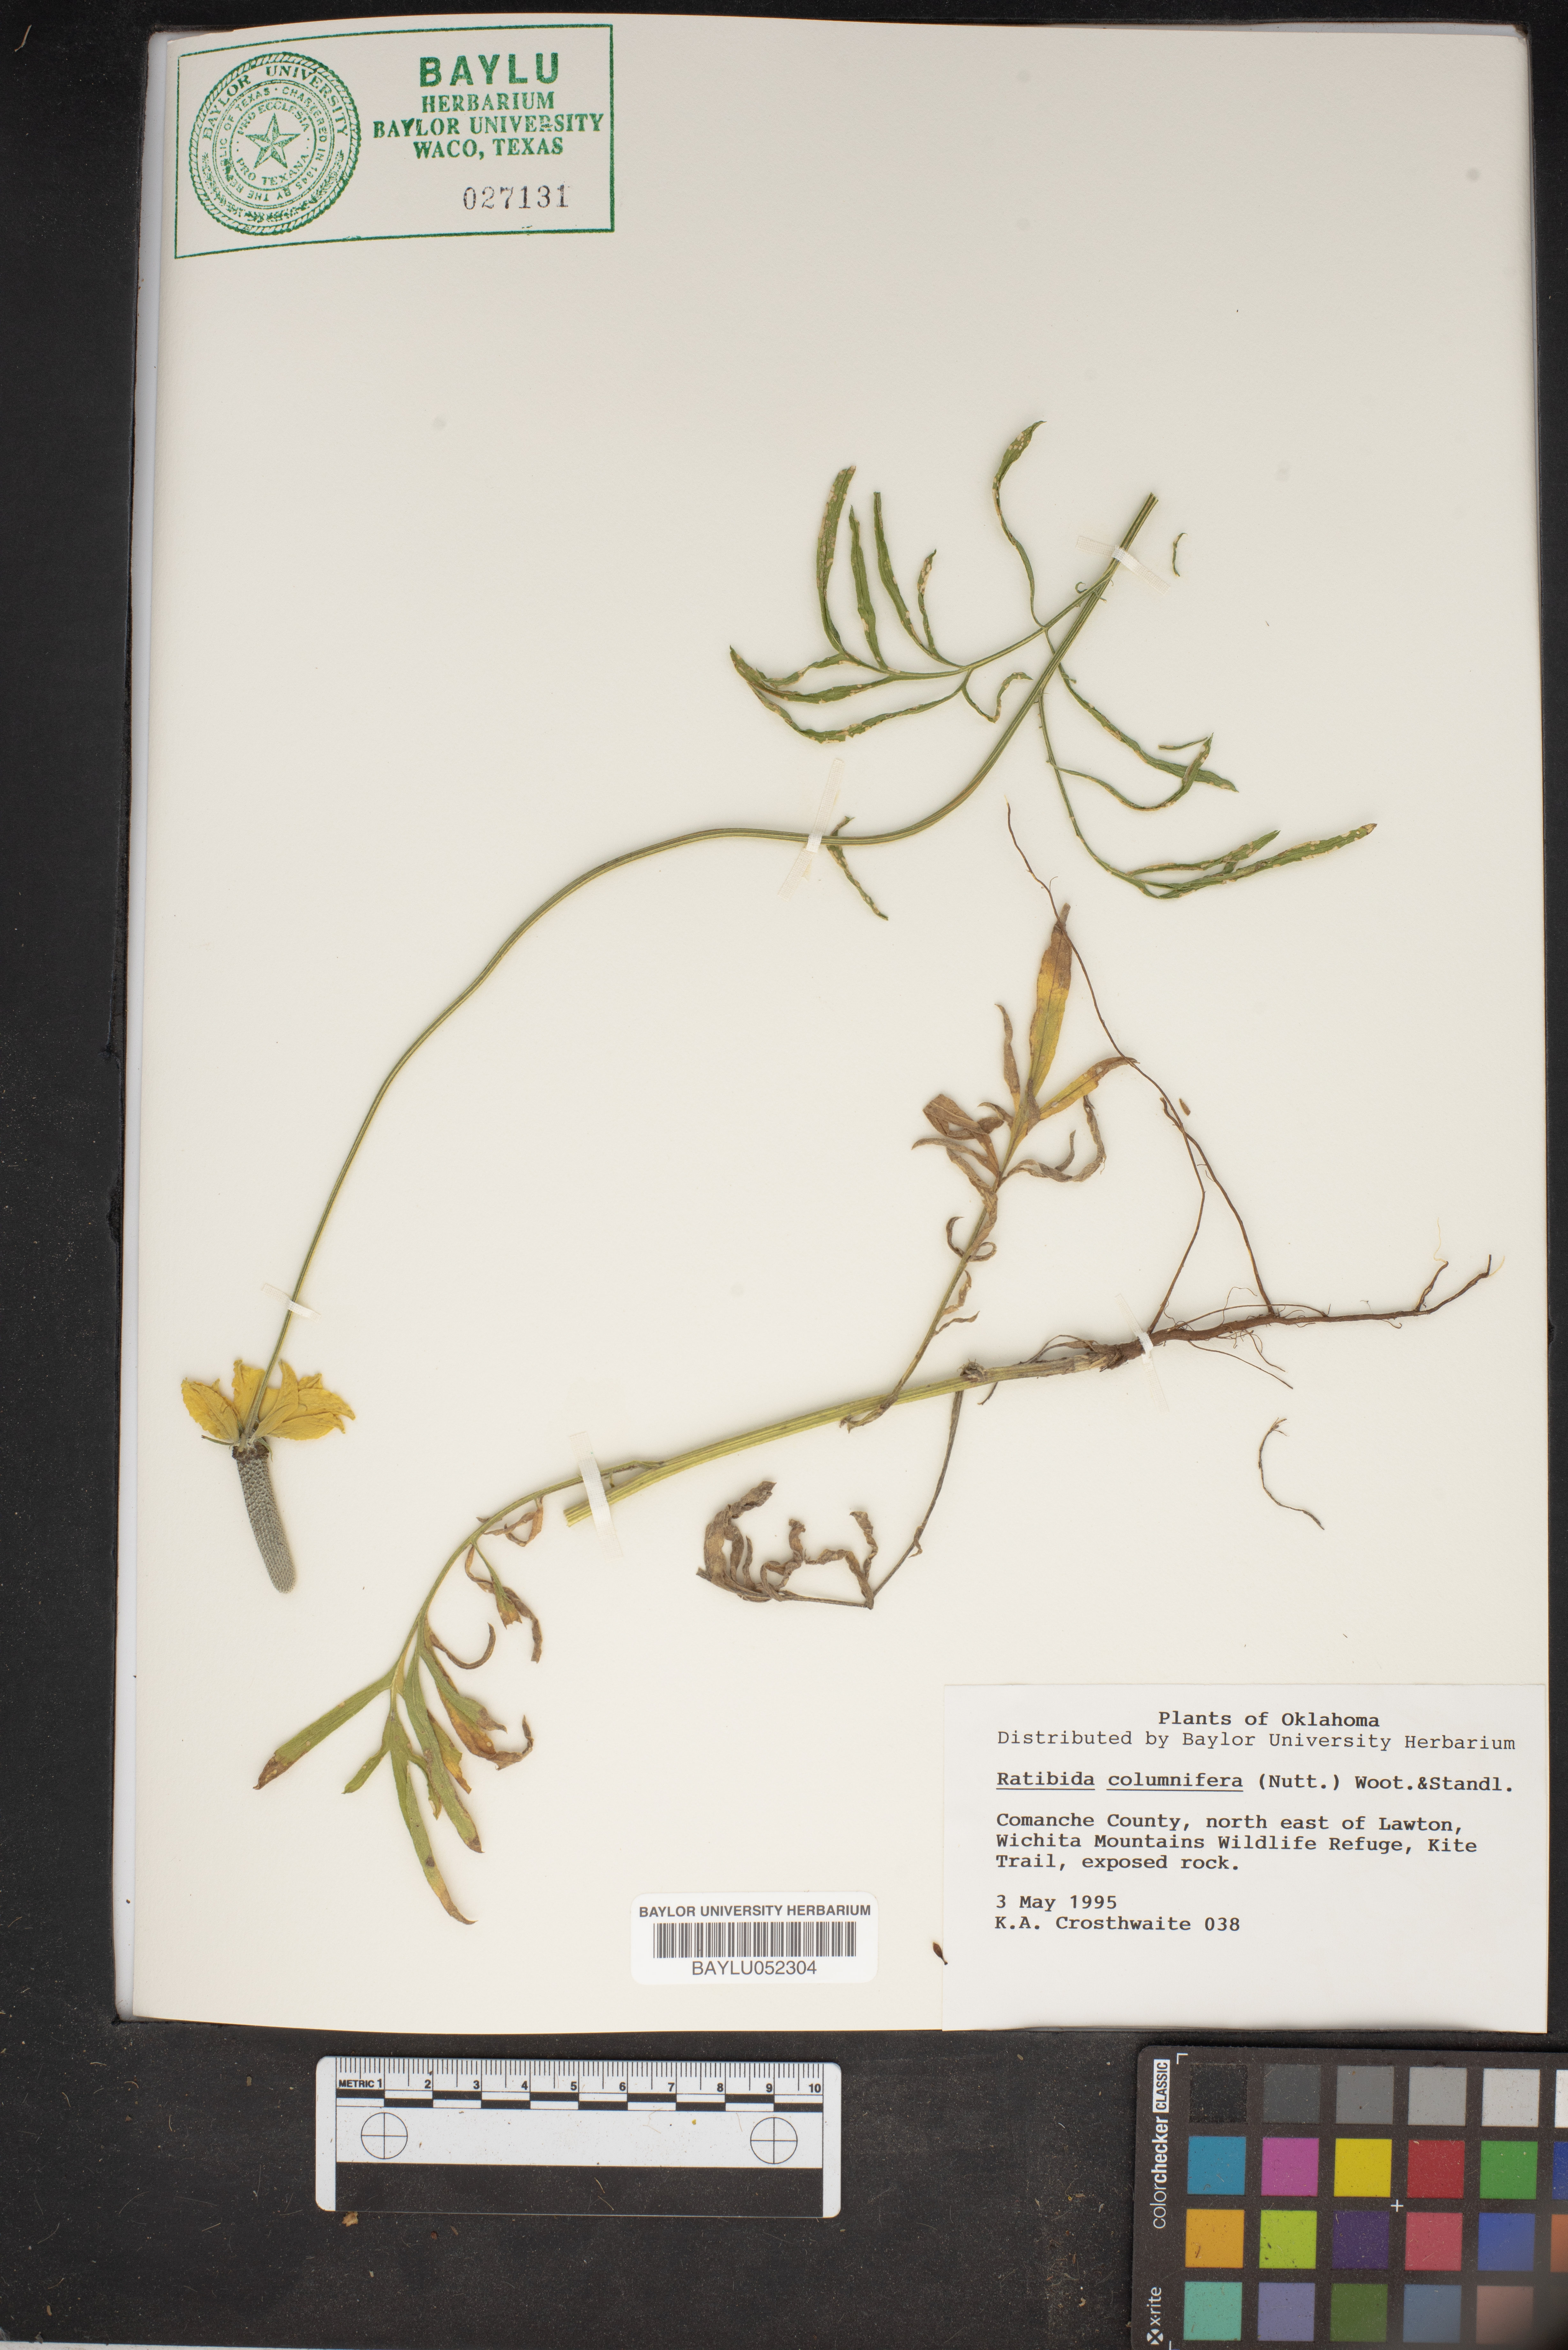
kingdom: Plantae
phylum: Tracheophyta
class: Magnoliopsida
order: Asterales
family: Asteraceae
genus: Ratibida
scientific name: Ratibida columnifera
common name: Prairie coneflower
